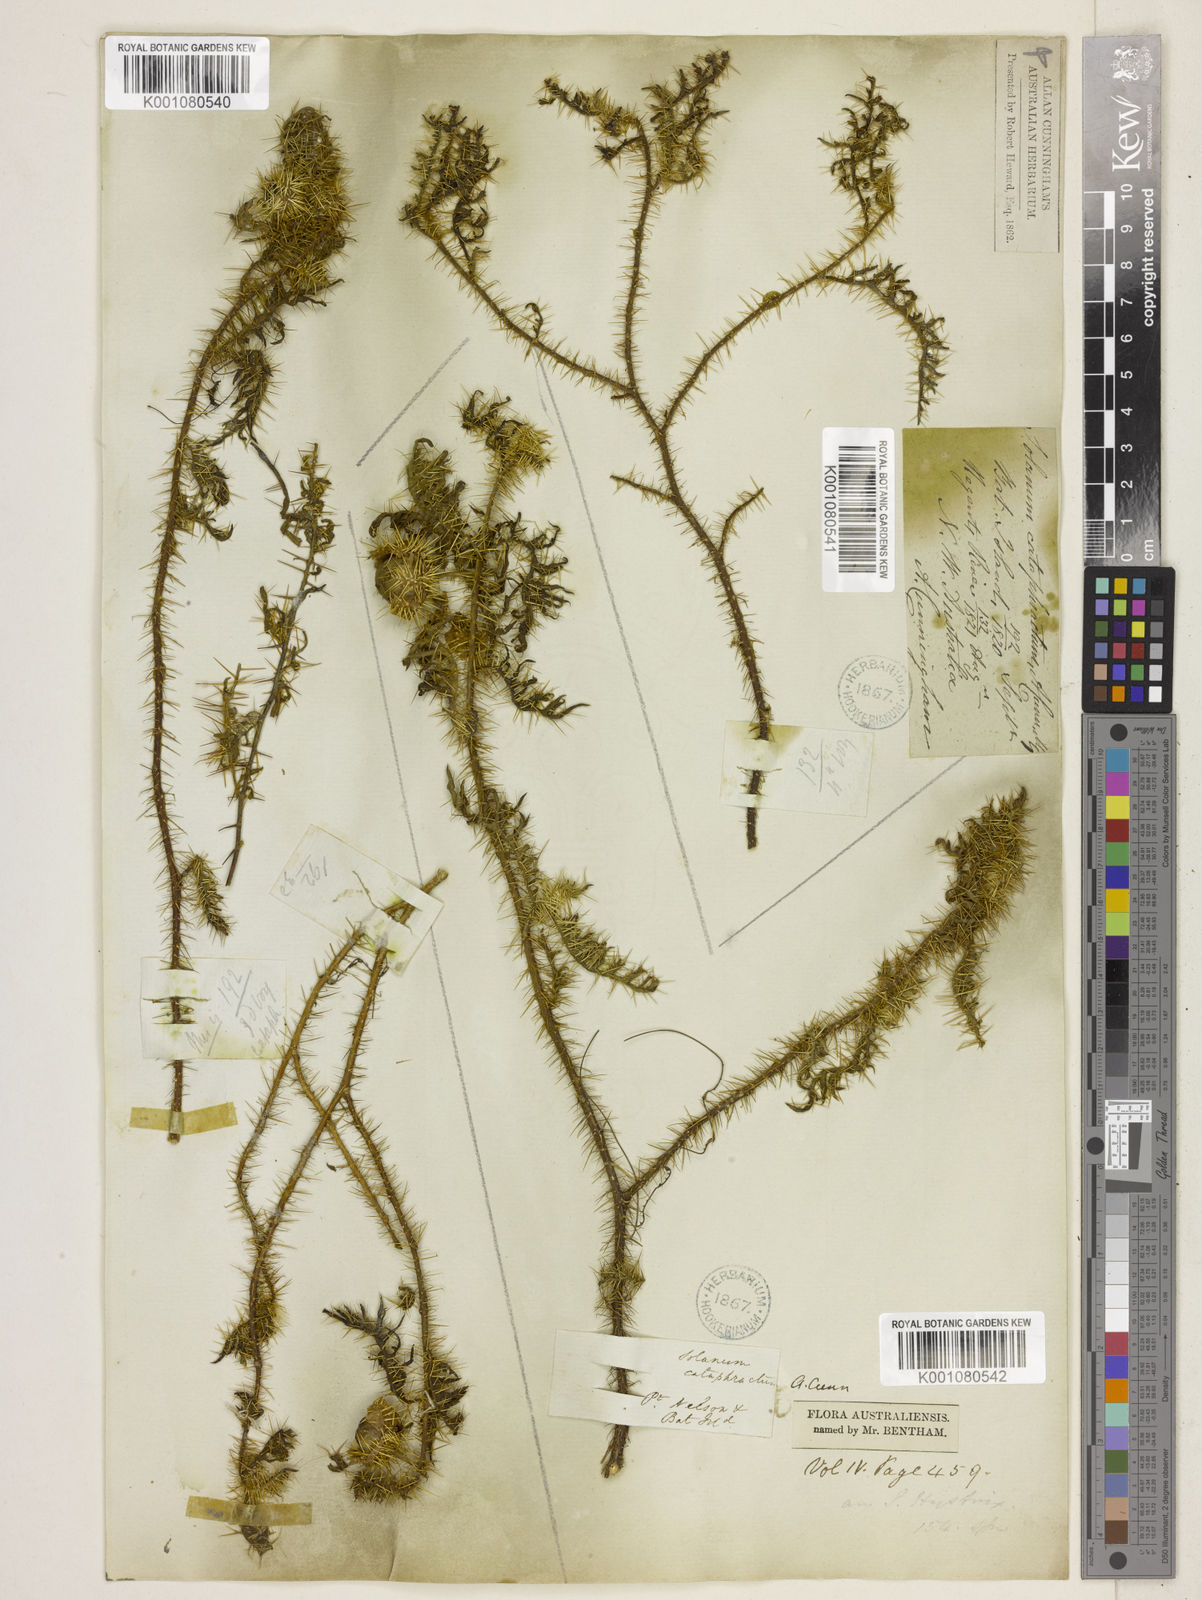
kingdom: Plantae
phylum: Tracheophyta
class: Magnoliopsida
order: Solanales
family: Solanaceae
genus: Solanum
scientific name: Solanum cataphractum
